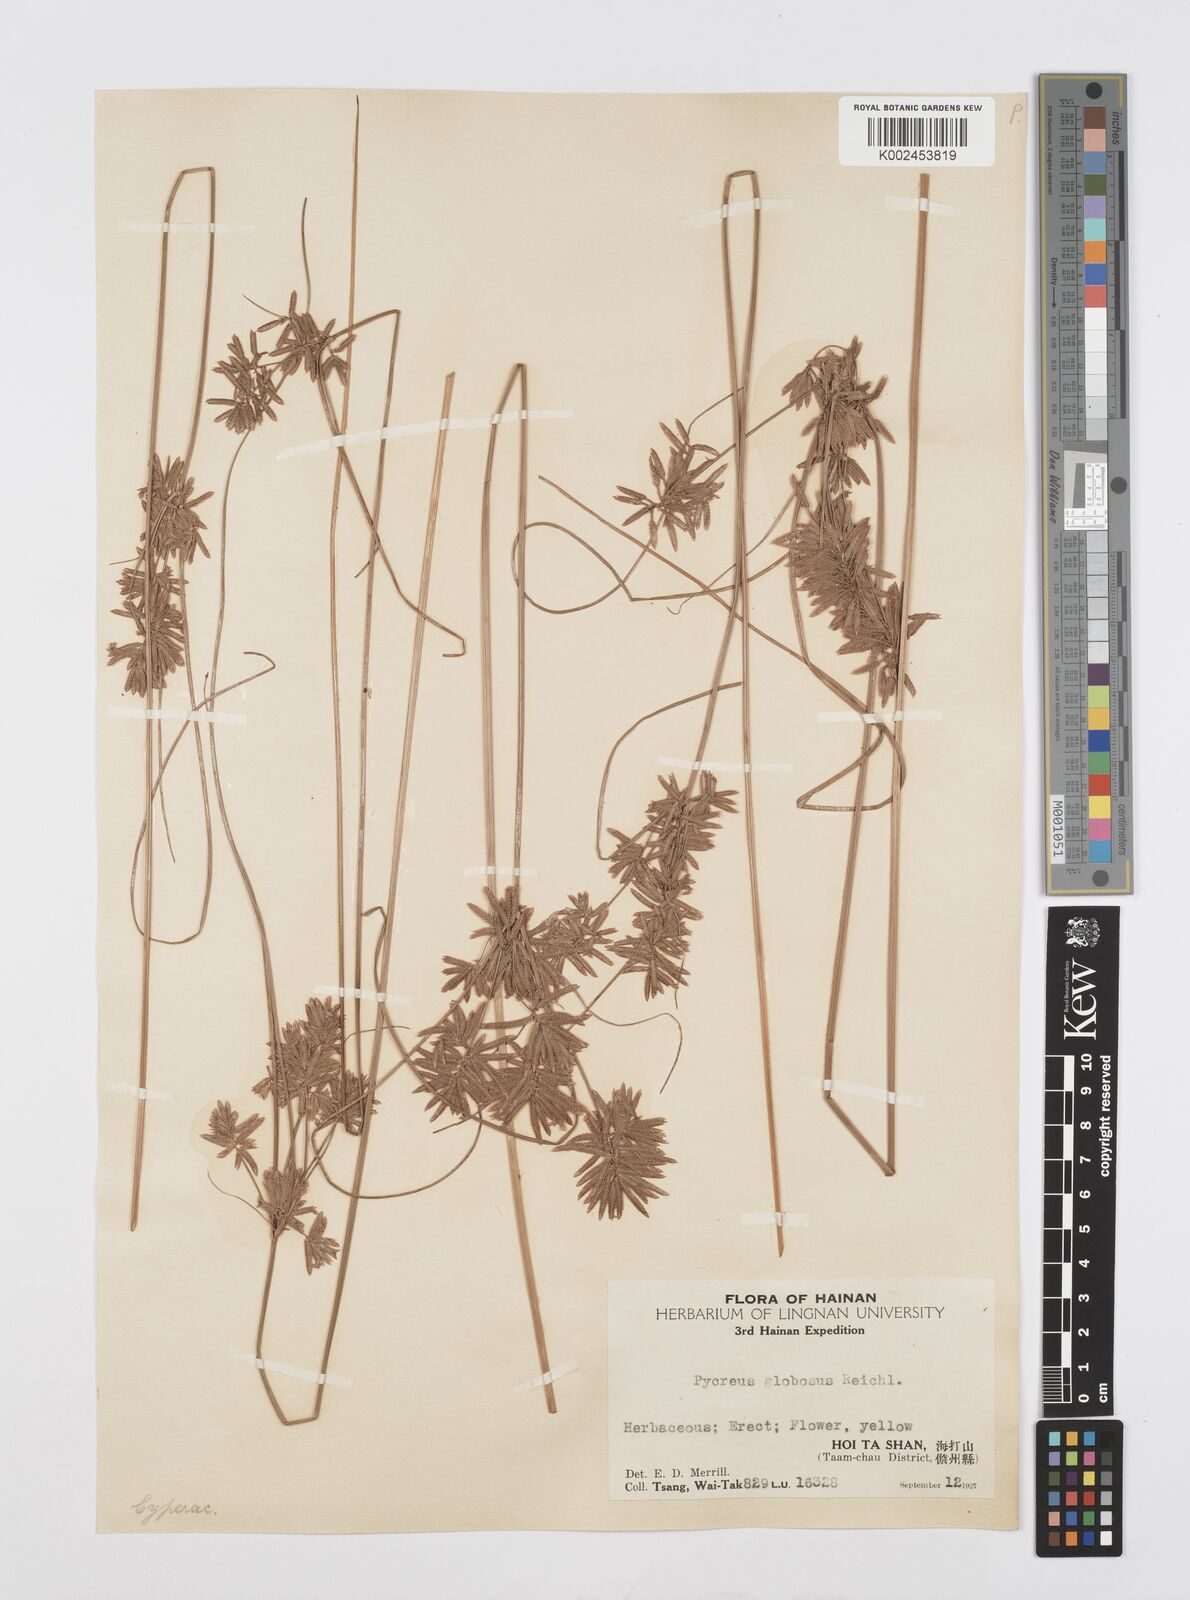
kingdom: Plantae
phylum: Tracheophyta
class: Liliopsida
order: Poales
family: Cyperaceae
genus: Cyperus
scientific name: Cyperus flavidus
